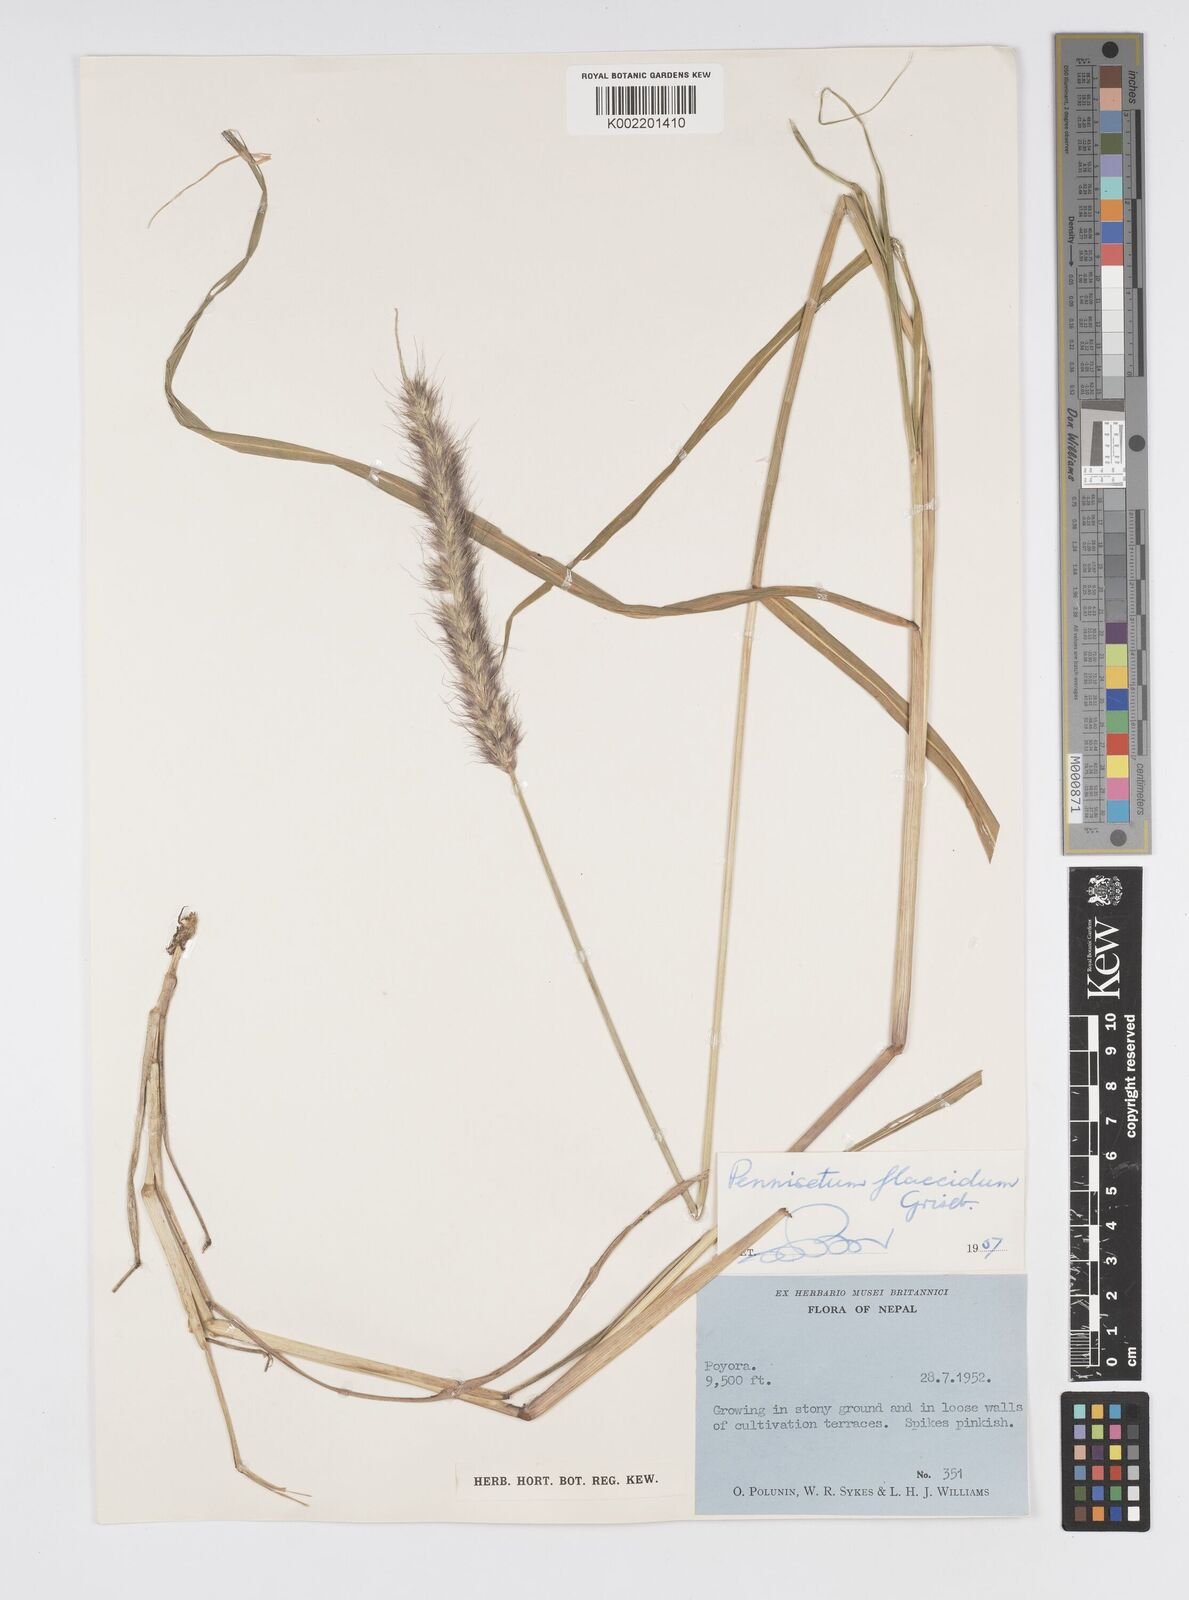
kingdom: Plantae
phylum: Tracheophyta
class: Liliopsida
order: Poales
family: Poaceae
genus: Cenchrus
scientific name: Cenchrus flaccidus
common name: Flaccid grass
